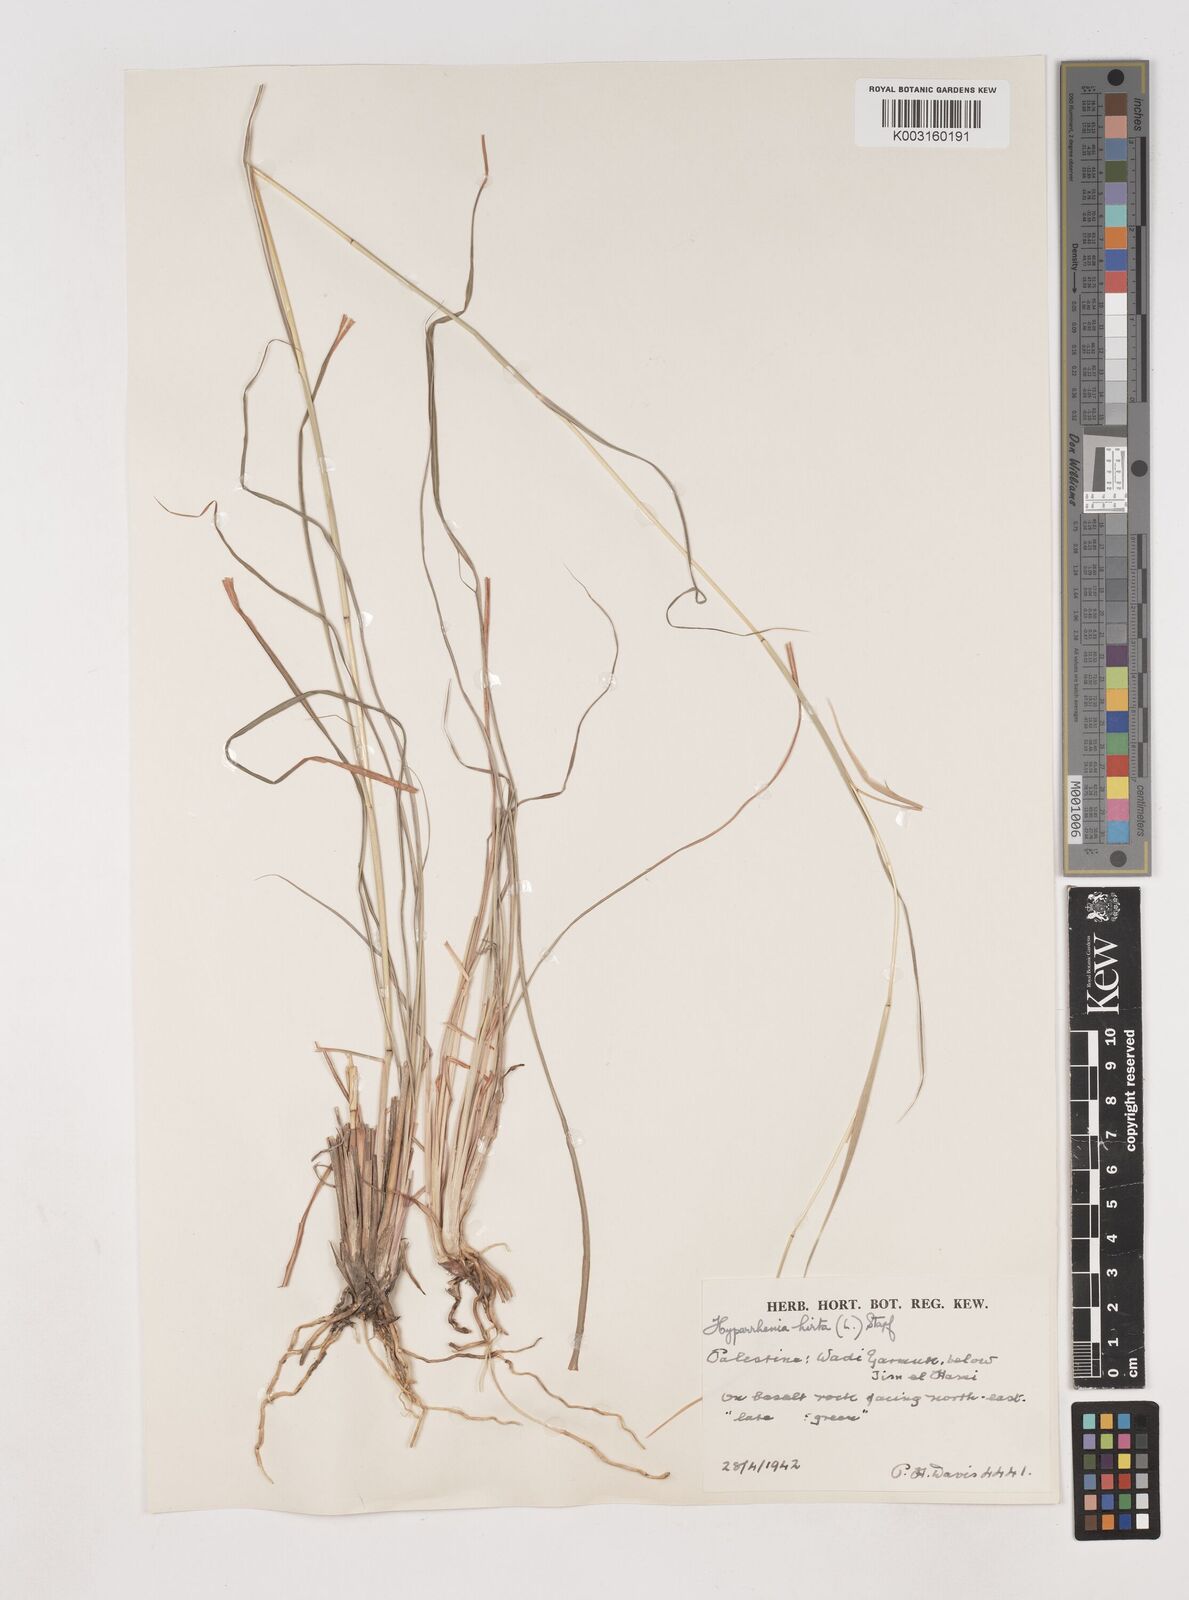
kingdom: Plantae
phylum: Tracheophyta
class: Liliopsida
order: Poales
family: Poaceae
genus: Hyparrhenia
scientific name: Hyparrhenia hirta
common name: Thatching grass
